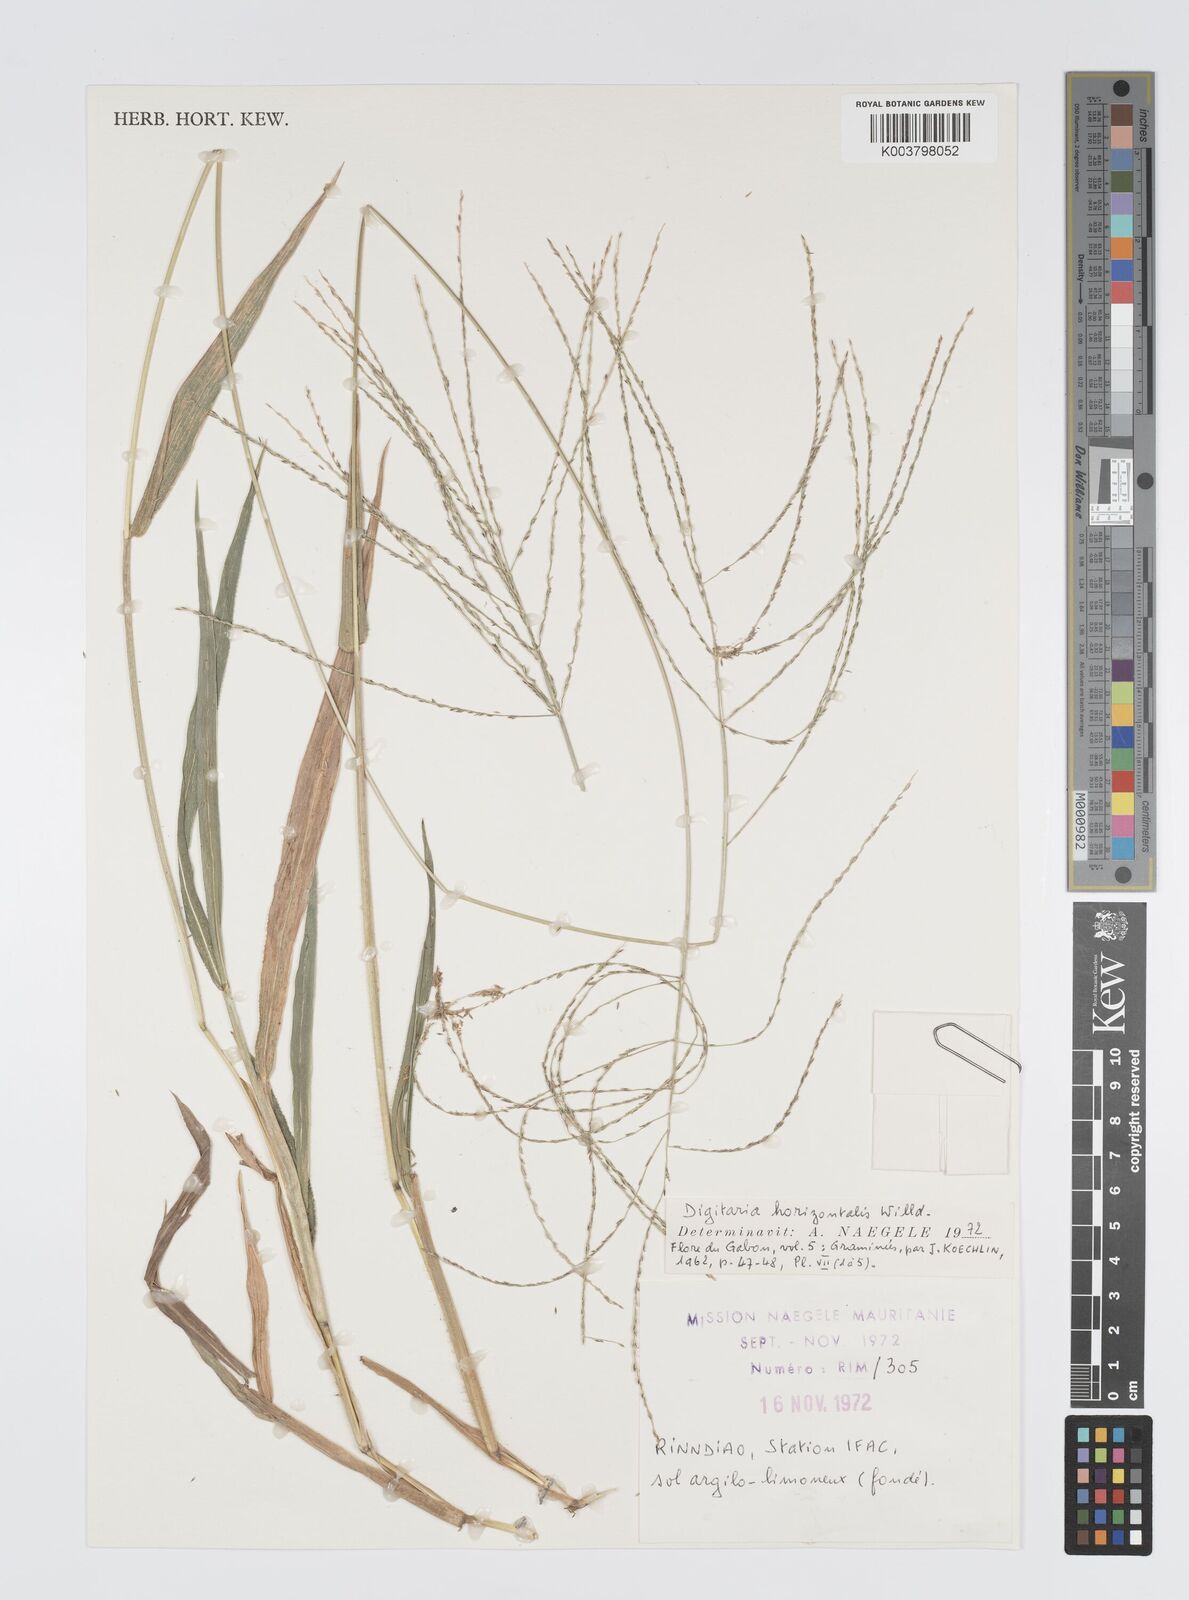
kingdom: Plantae
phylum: Tracheophyta
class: Liliopsida
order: Poales
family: Poaceae
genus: Digitaria
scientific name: Digitaria horizontalis
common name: Jamaican crabgrass
